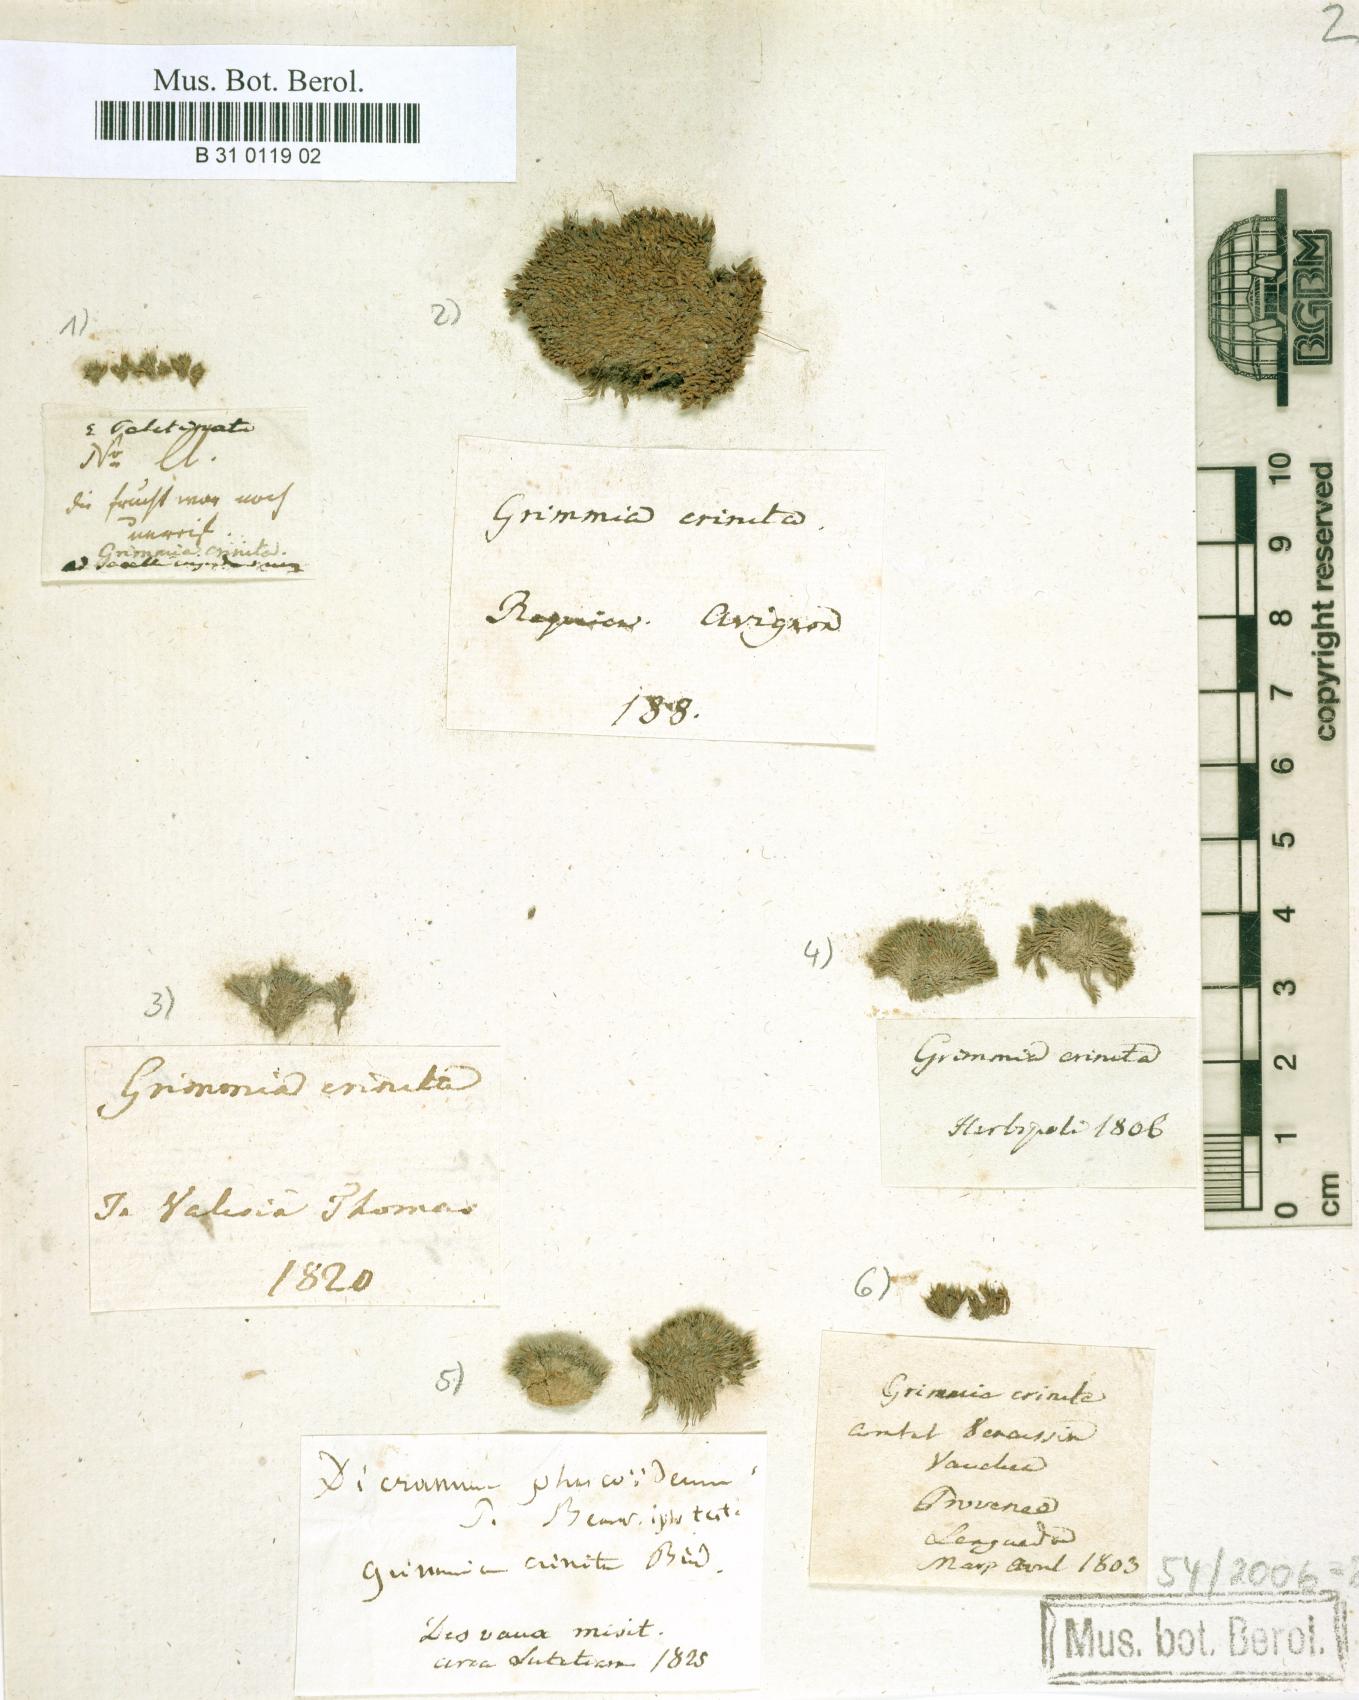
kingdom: Plantae
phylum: Bryophyta
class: Bryopsida
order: Grimmiales
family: Grimmiaceae
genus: Grimmia
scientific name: Grimmia crinita
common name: Hedgehog grimmia
